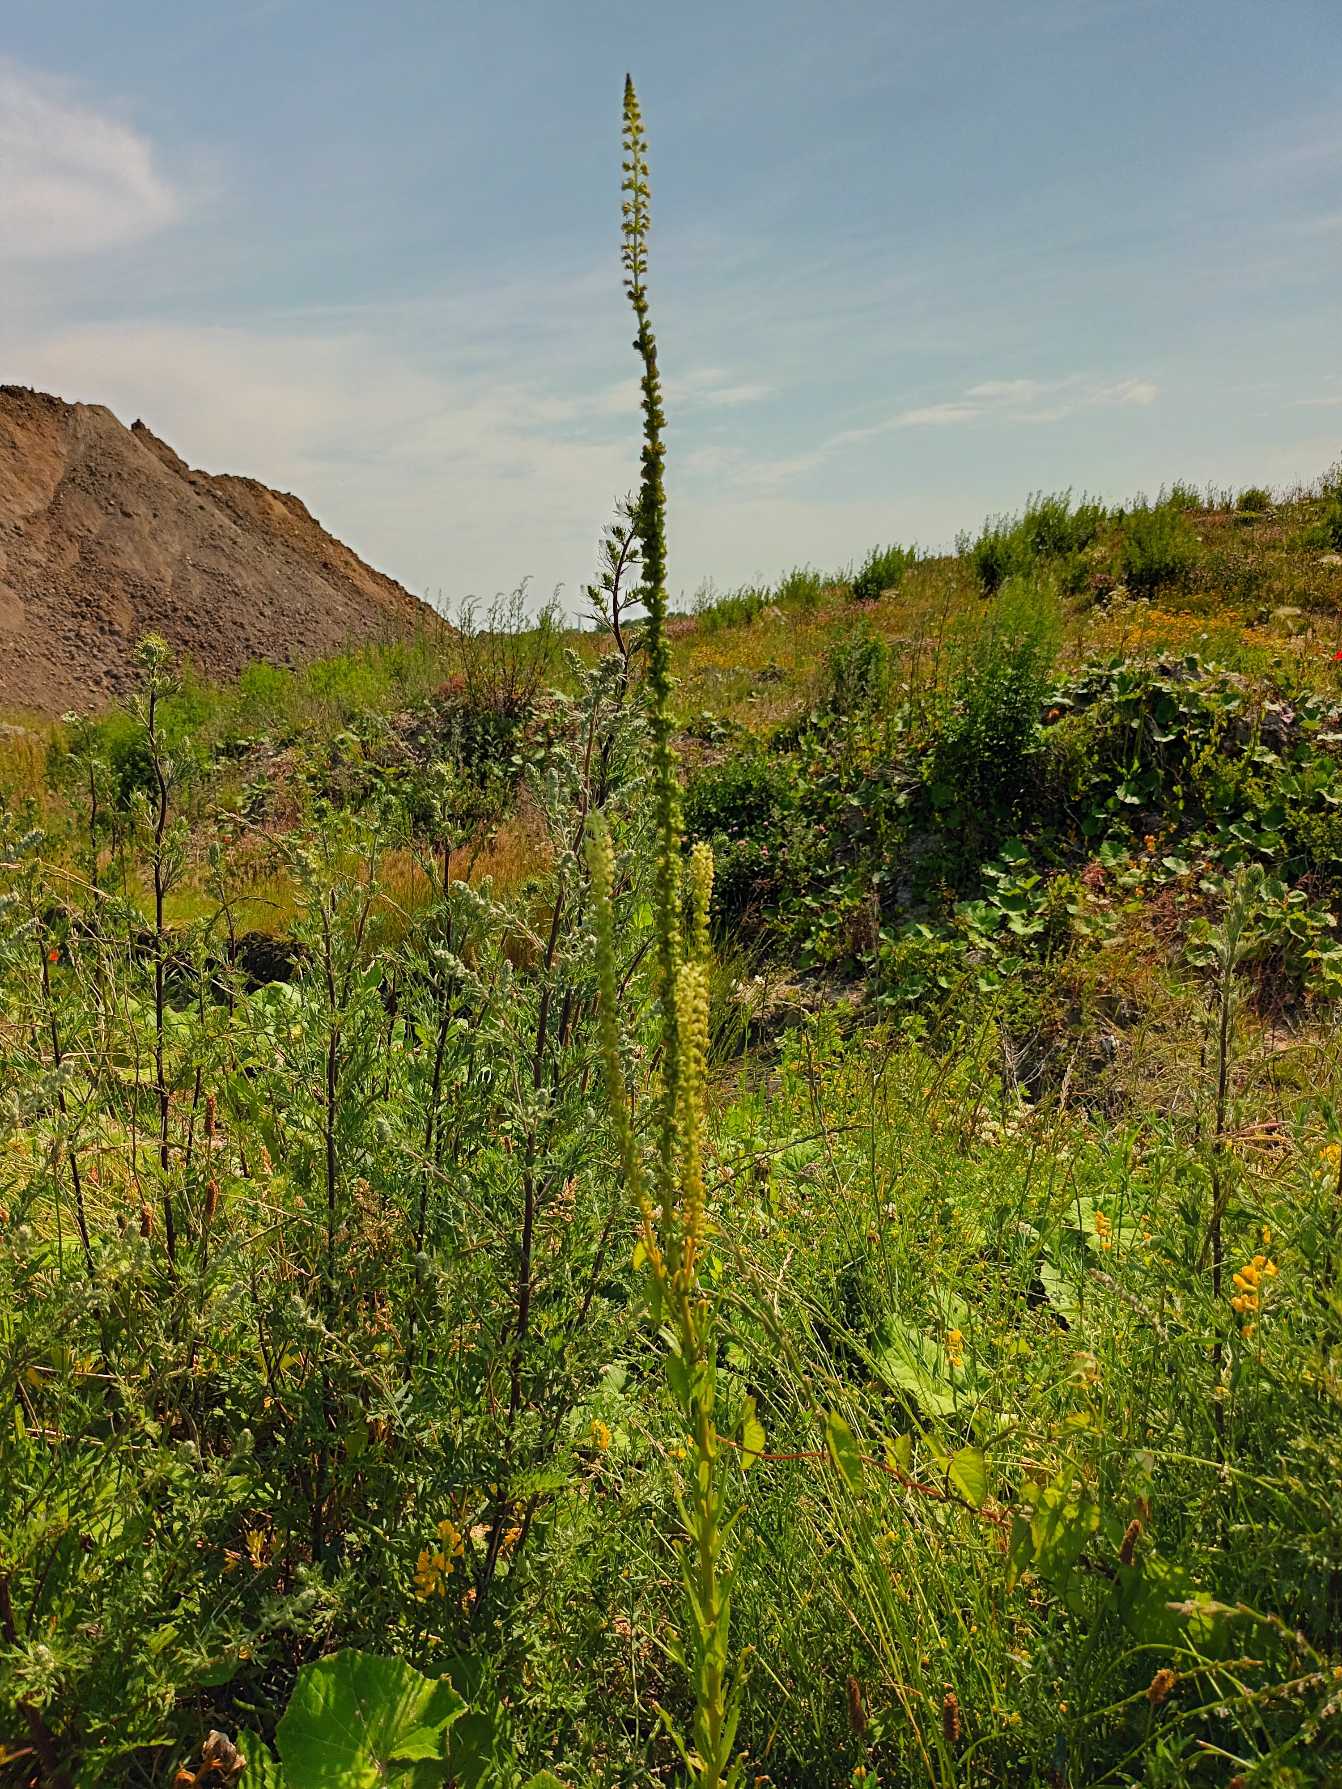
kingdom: Plantae
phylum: Tracheophyta
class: Magnoliopsida
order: Brassicales
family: Resedaceae
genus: Reseda
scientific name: Reseda luteola
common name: Farve-reseda
